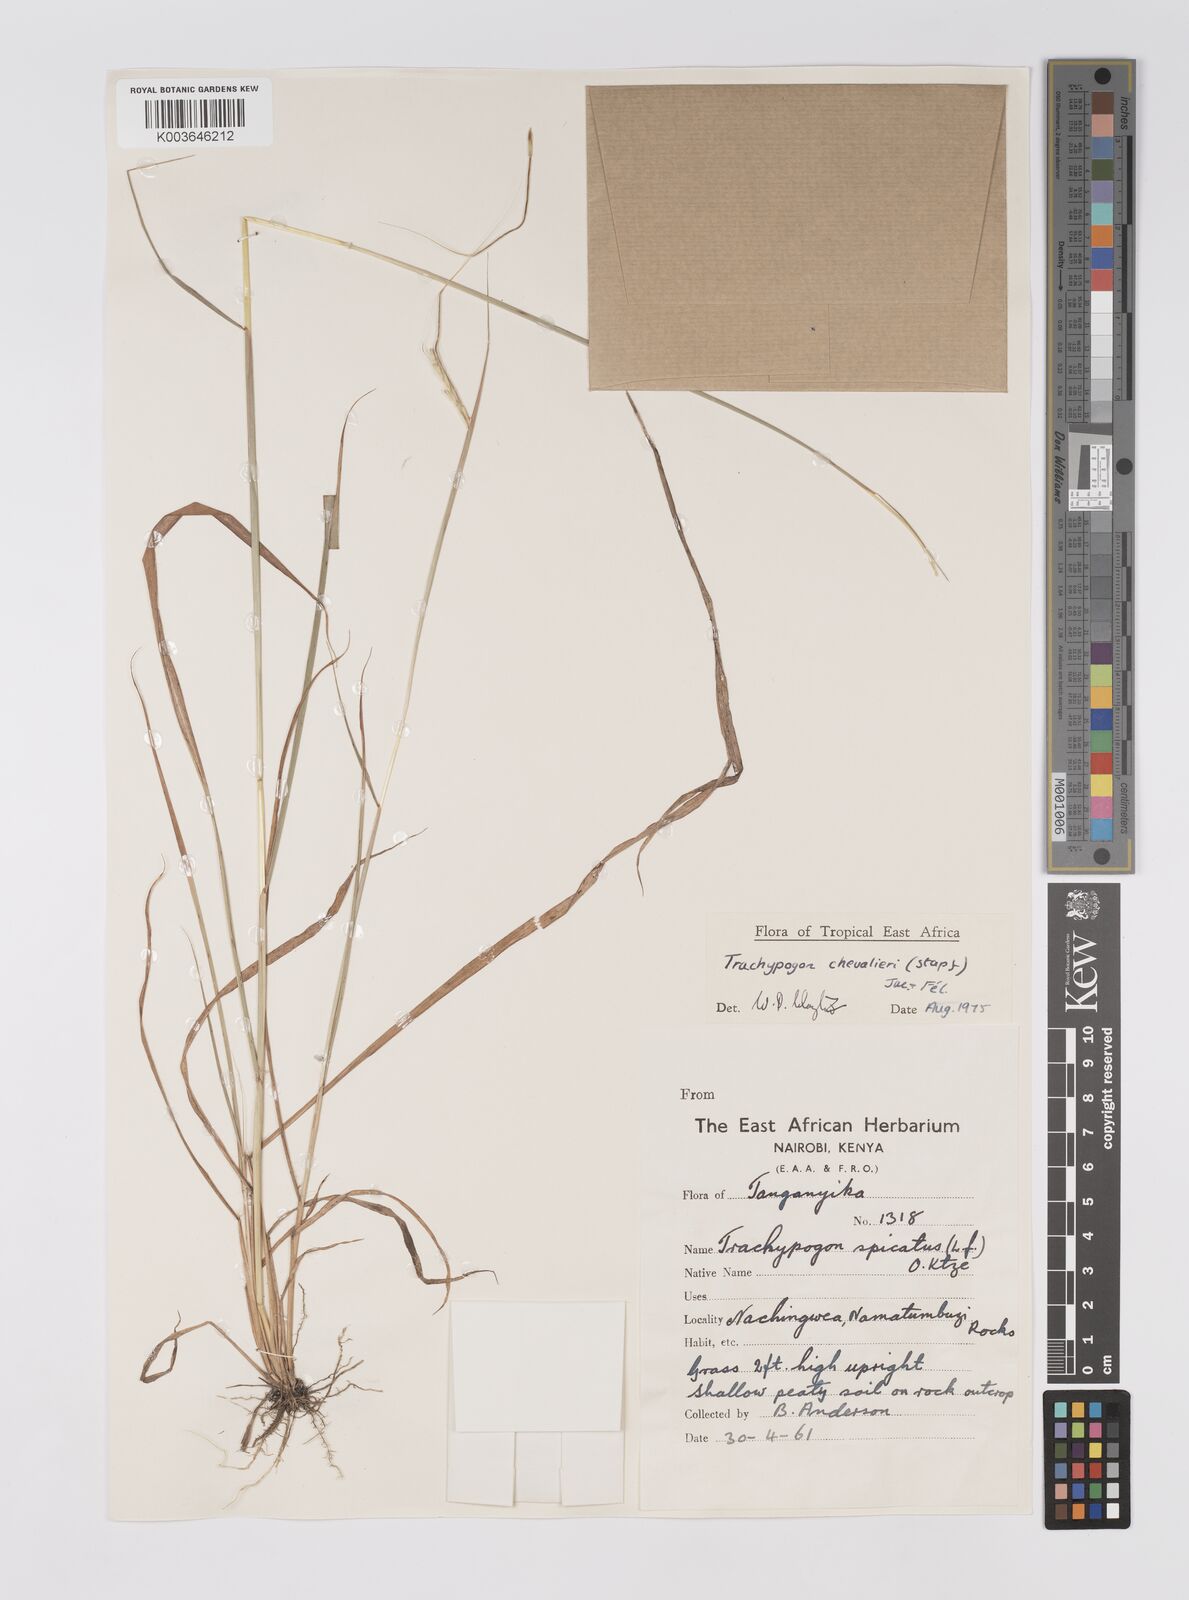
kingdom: Plantae
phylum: Tracheophyta
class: Liliopsida
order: Poales
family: Poaceae
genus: Trachypogon
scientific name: Trachypogon chevalieri
